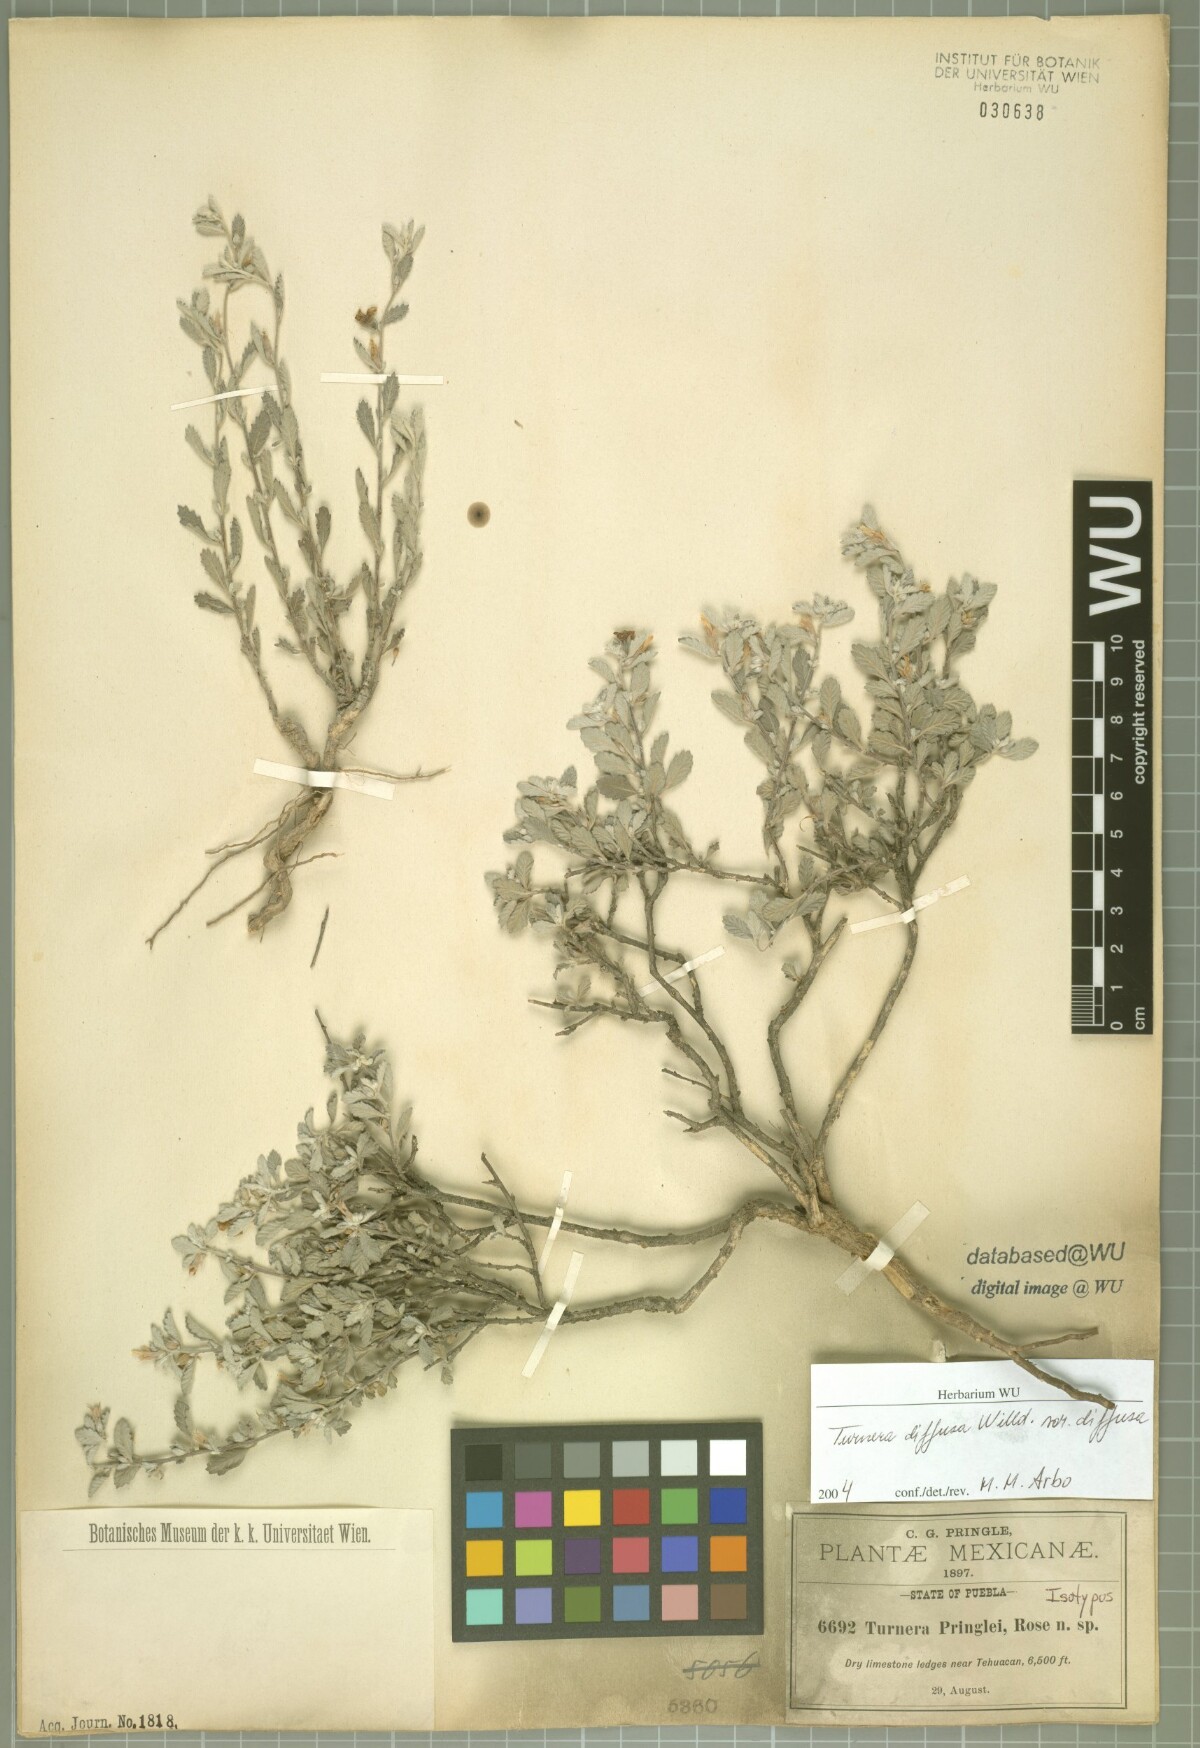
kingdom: Plantae
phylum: Tracheophyta
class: Magnoliopsida
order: Malpighiales
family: Turneraceae
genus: Turnera
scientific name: Turnera diffusa
